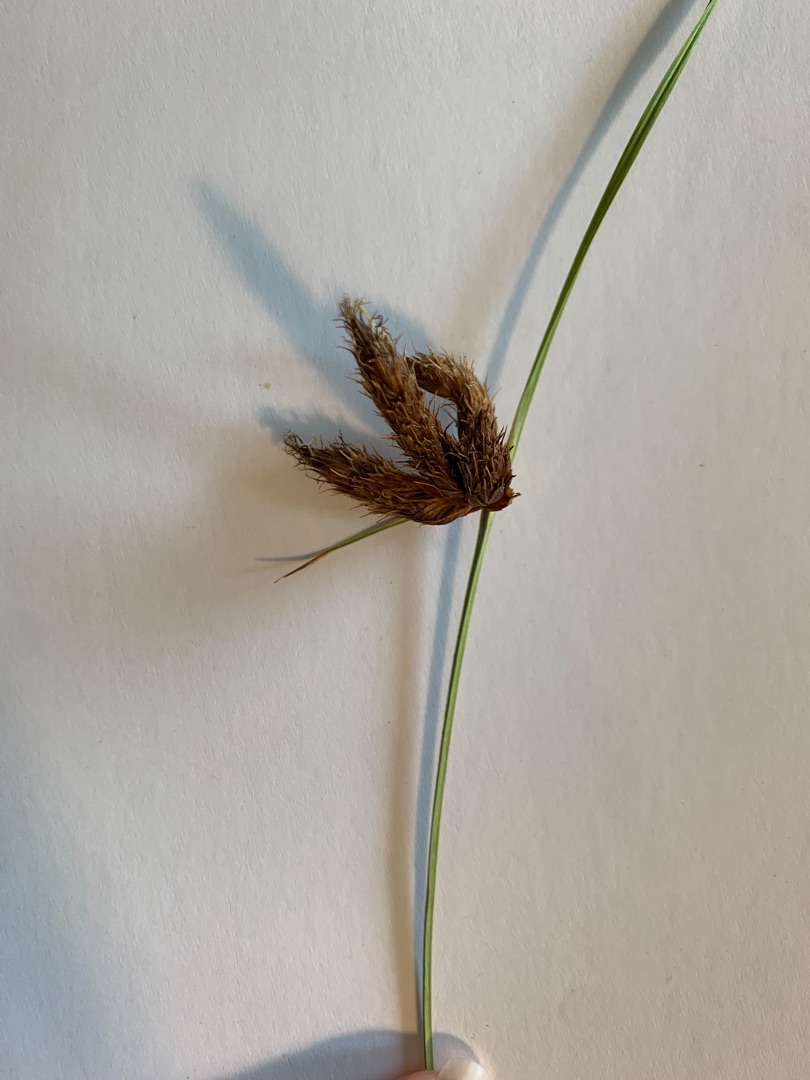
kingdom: Plantae
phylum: Tracheophyta
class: Liliopsida
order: Poales
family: Cyperaceae
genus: Bolboschoenus
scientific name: Bolboschoenus maritimus
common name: Strand-kogleaks
